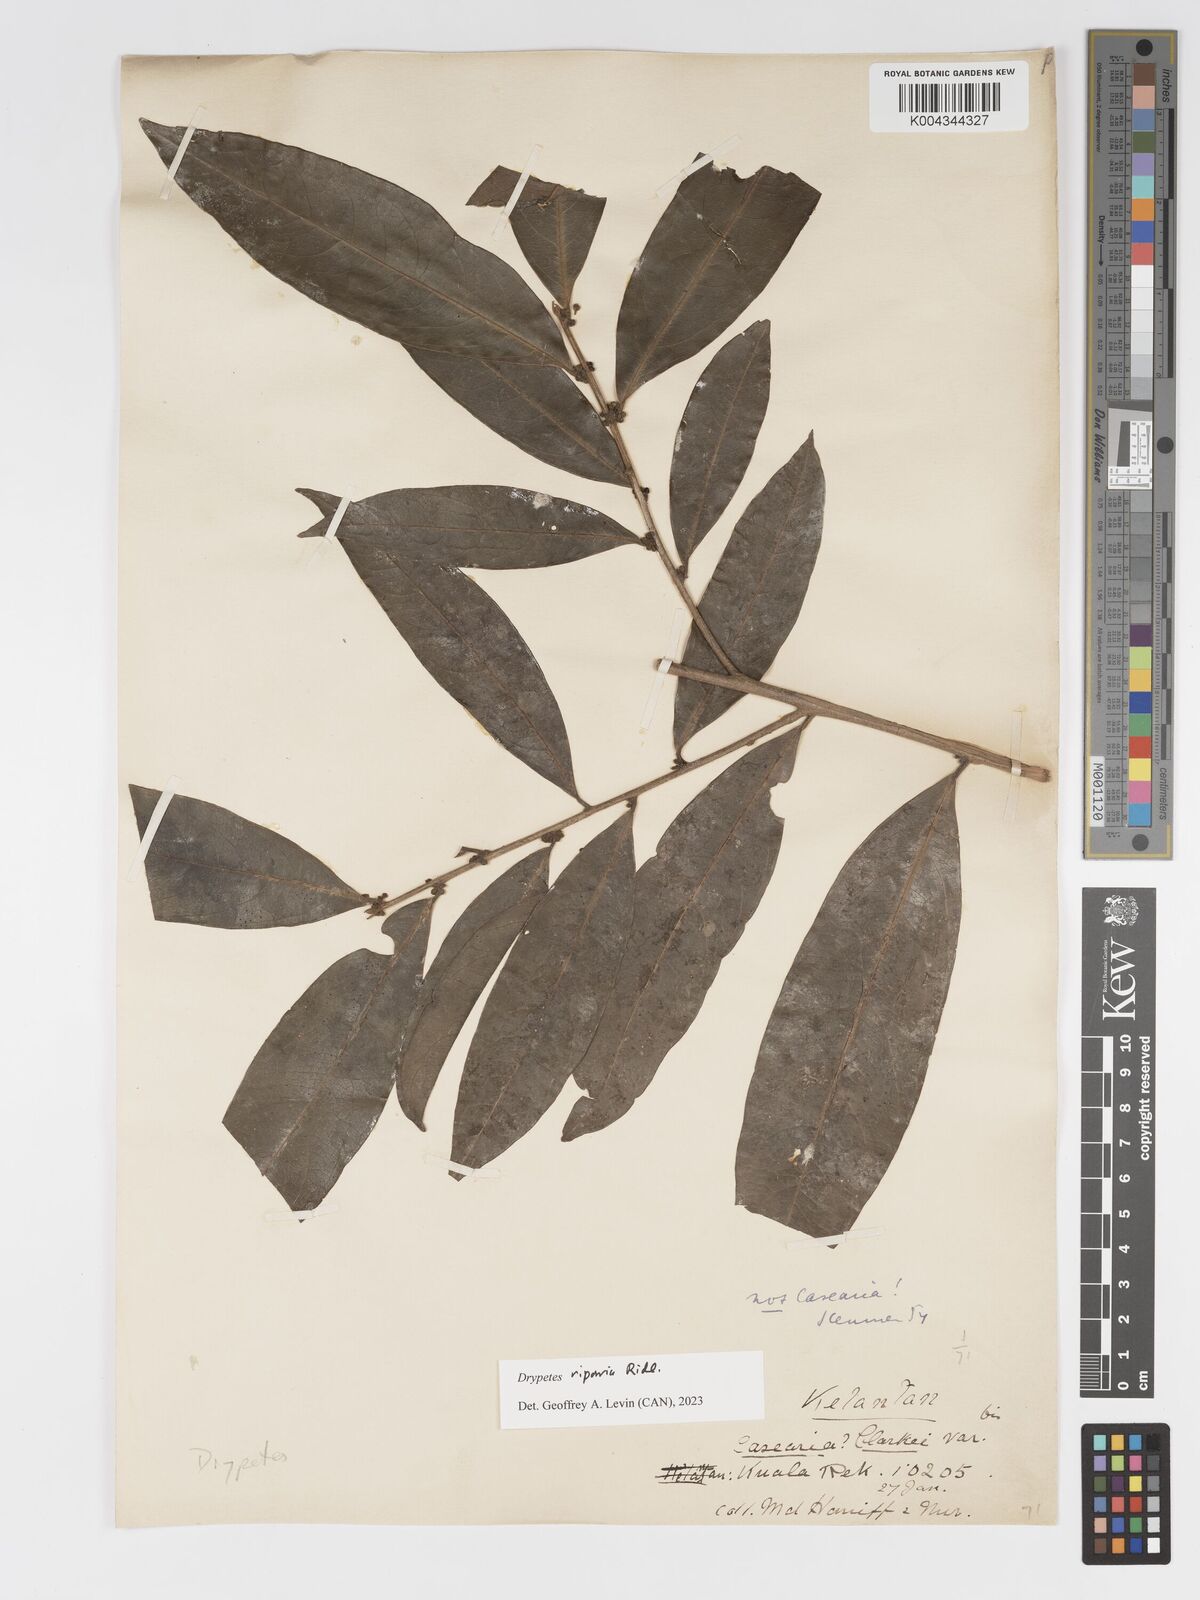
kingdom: Plantae
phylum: Tracheophyta
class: Magnoliopsida
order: Malpighiales
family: Putranjivaceae
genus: Drypetes
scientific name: Drypetes riparia
